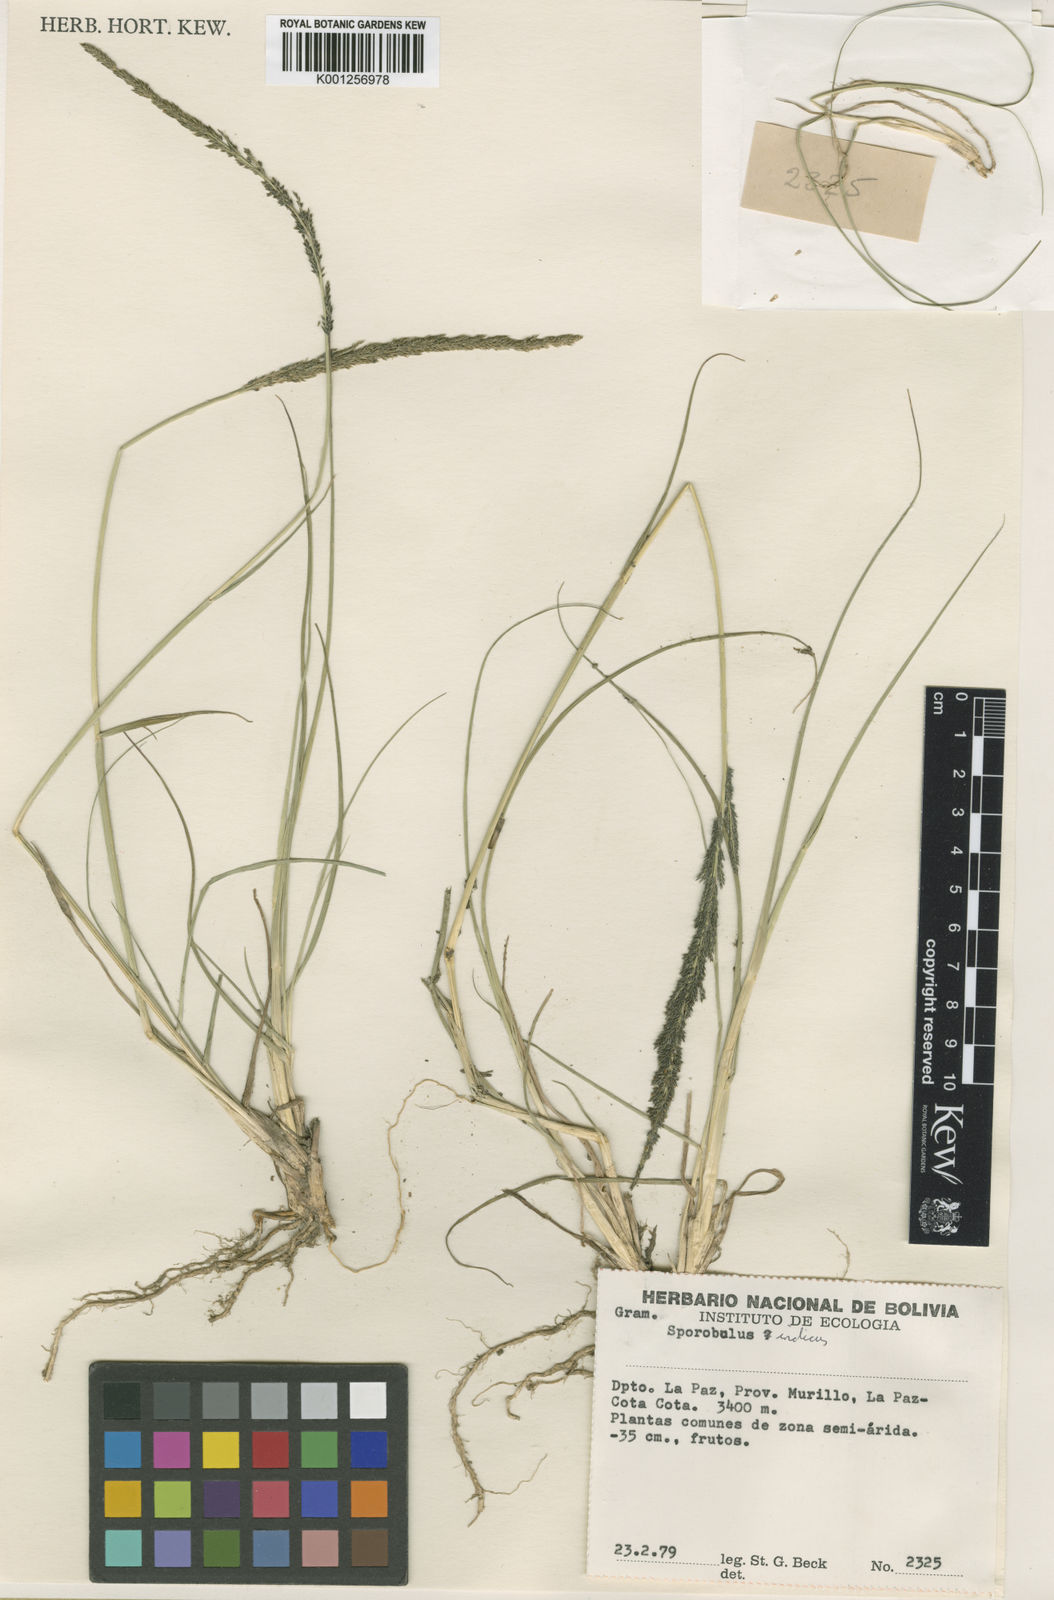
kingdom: Plantae
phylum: Tracheophyta
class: Liliopsida
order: Poales
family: Poaceae
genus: Sporobolus
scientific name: Sporobolus indicus
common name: Smut grass
